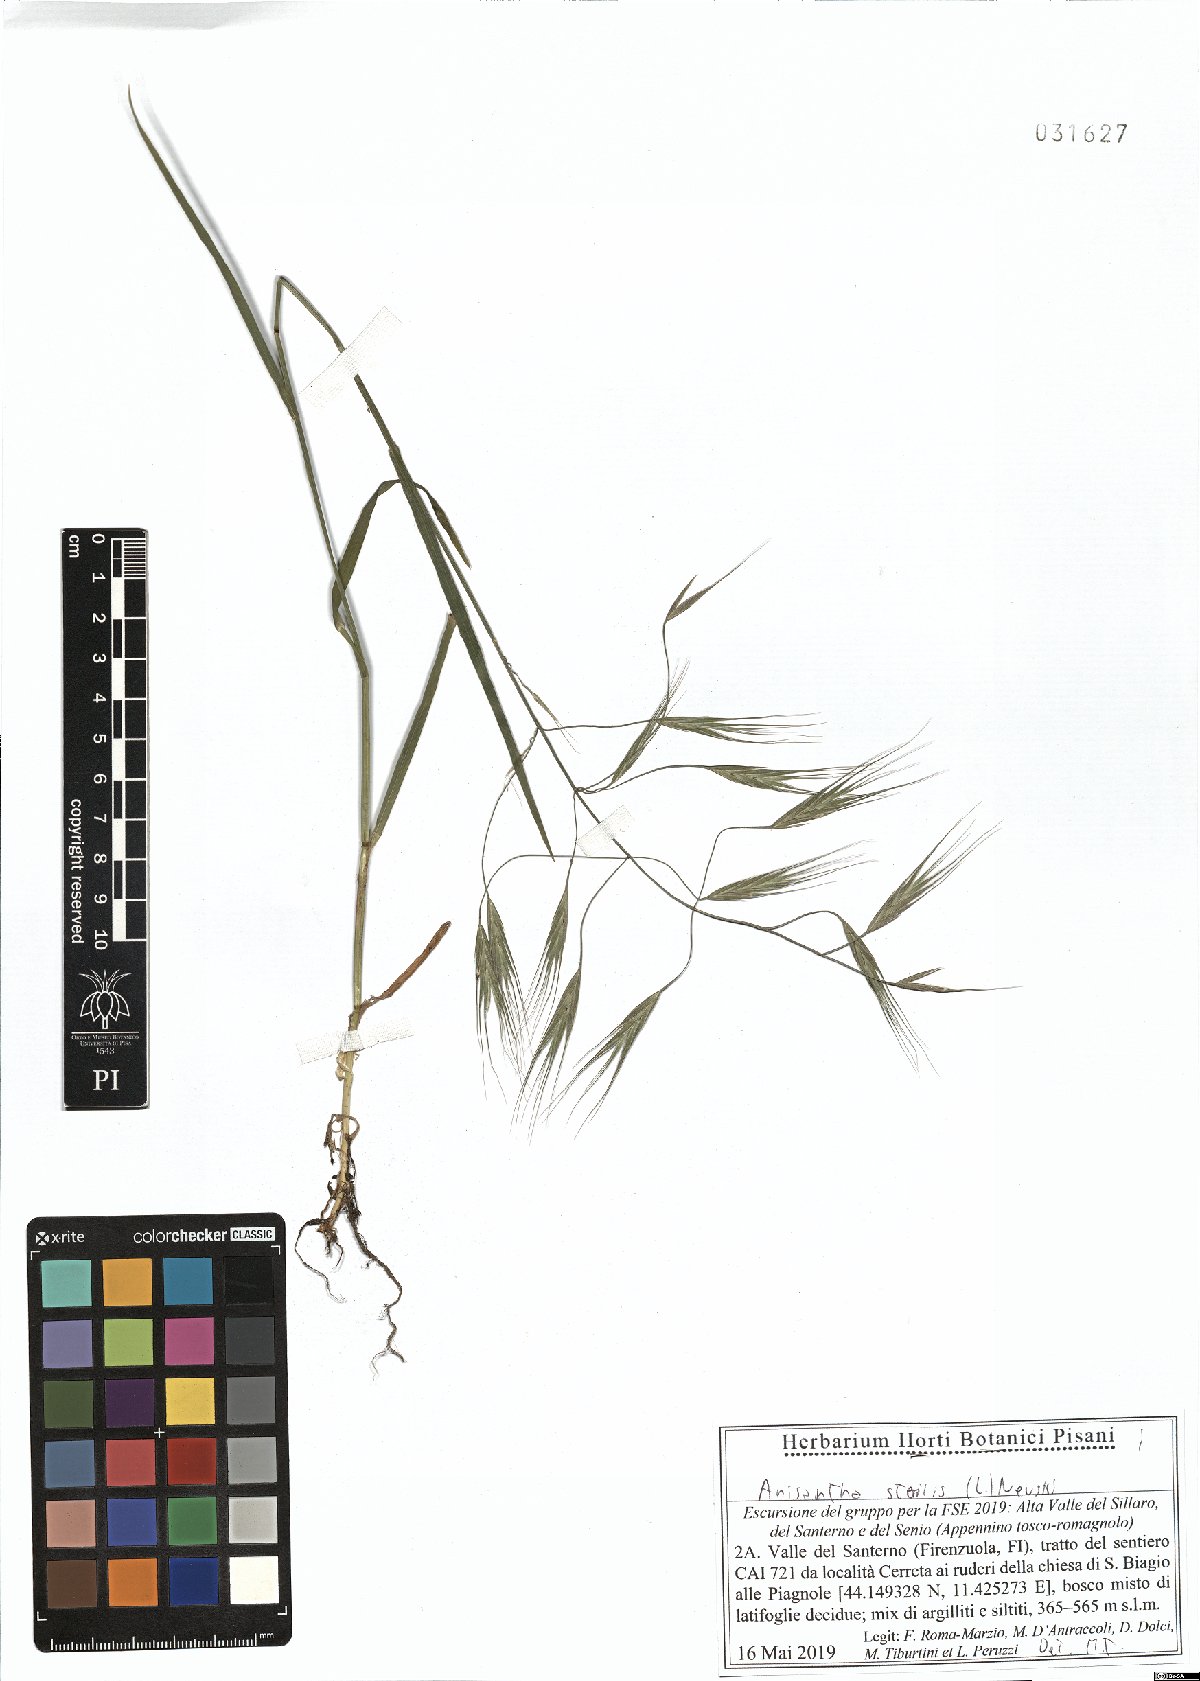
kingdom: Plantae
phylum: Tracheophyta
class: Liliopsida
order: Poales
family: Poaceae
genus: Bromus
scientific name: Bromus sterilis
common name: Poverty brome
